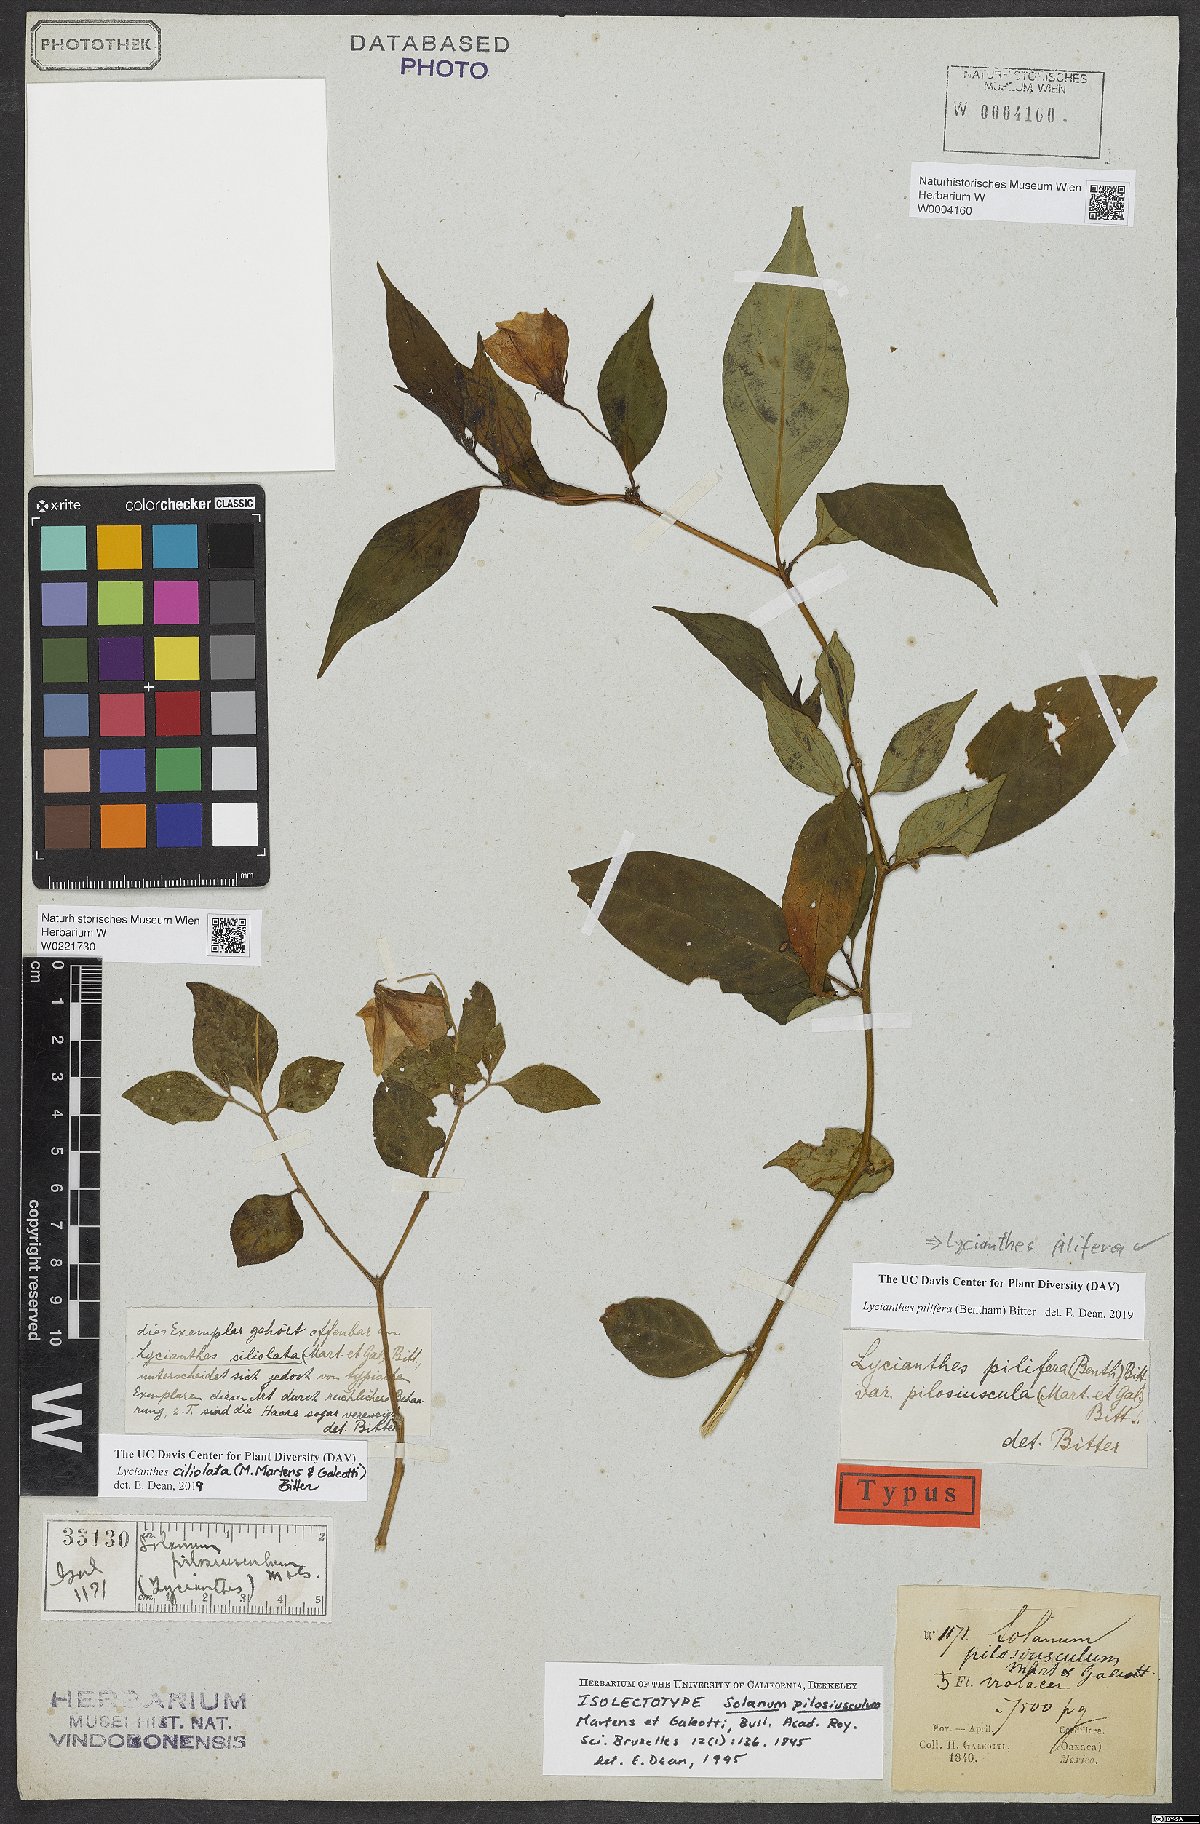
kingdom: Plantae
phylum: Tracheophyta
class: Magnoliopsida
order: Solanales
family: Solanaceae
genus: Lycianthes
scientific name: Lycianthes ciliolata
